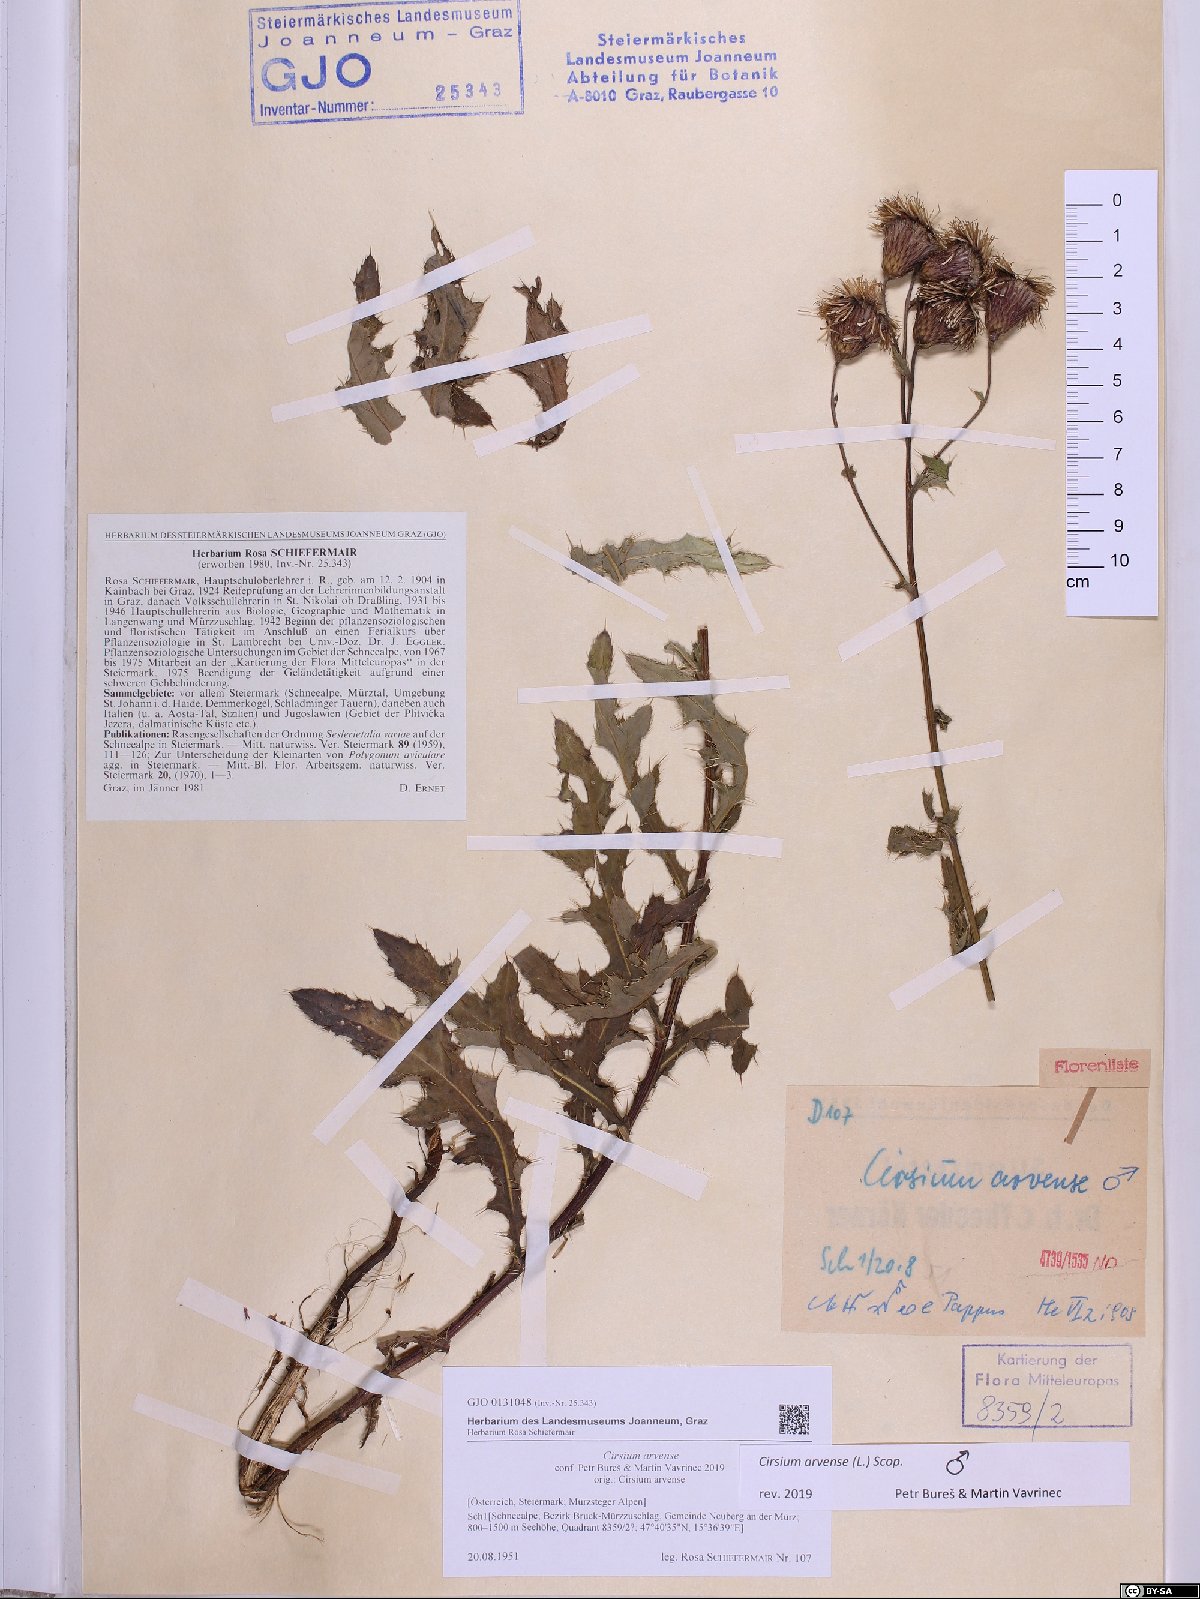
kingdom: Plantae
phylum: Tracheophyta
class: Magnoliopsida
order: Asterales
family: Asteraceae
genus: Cirsium
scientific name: Cirsium arvense
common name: Creeping thistle
